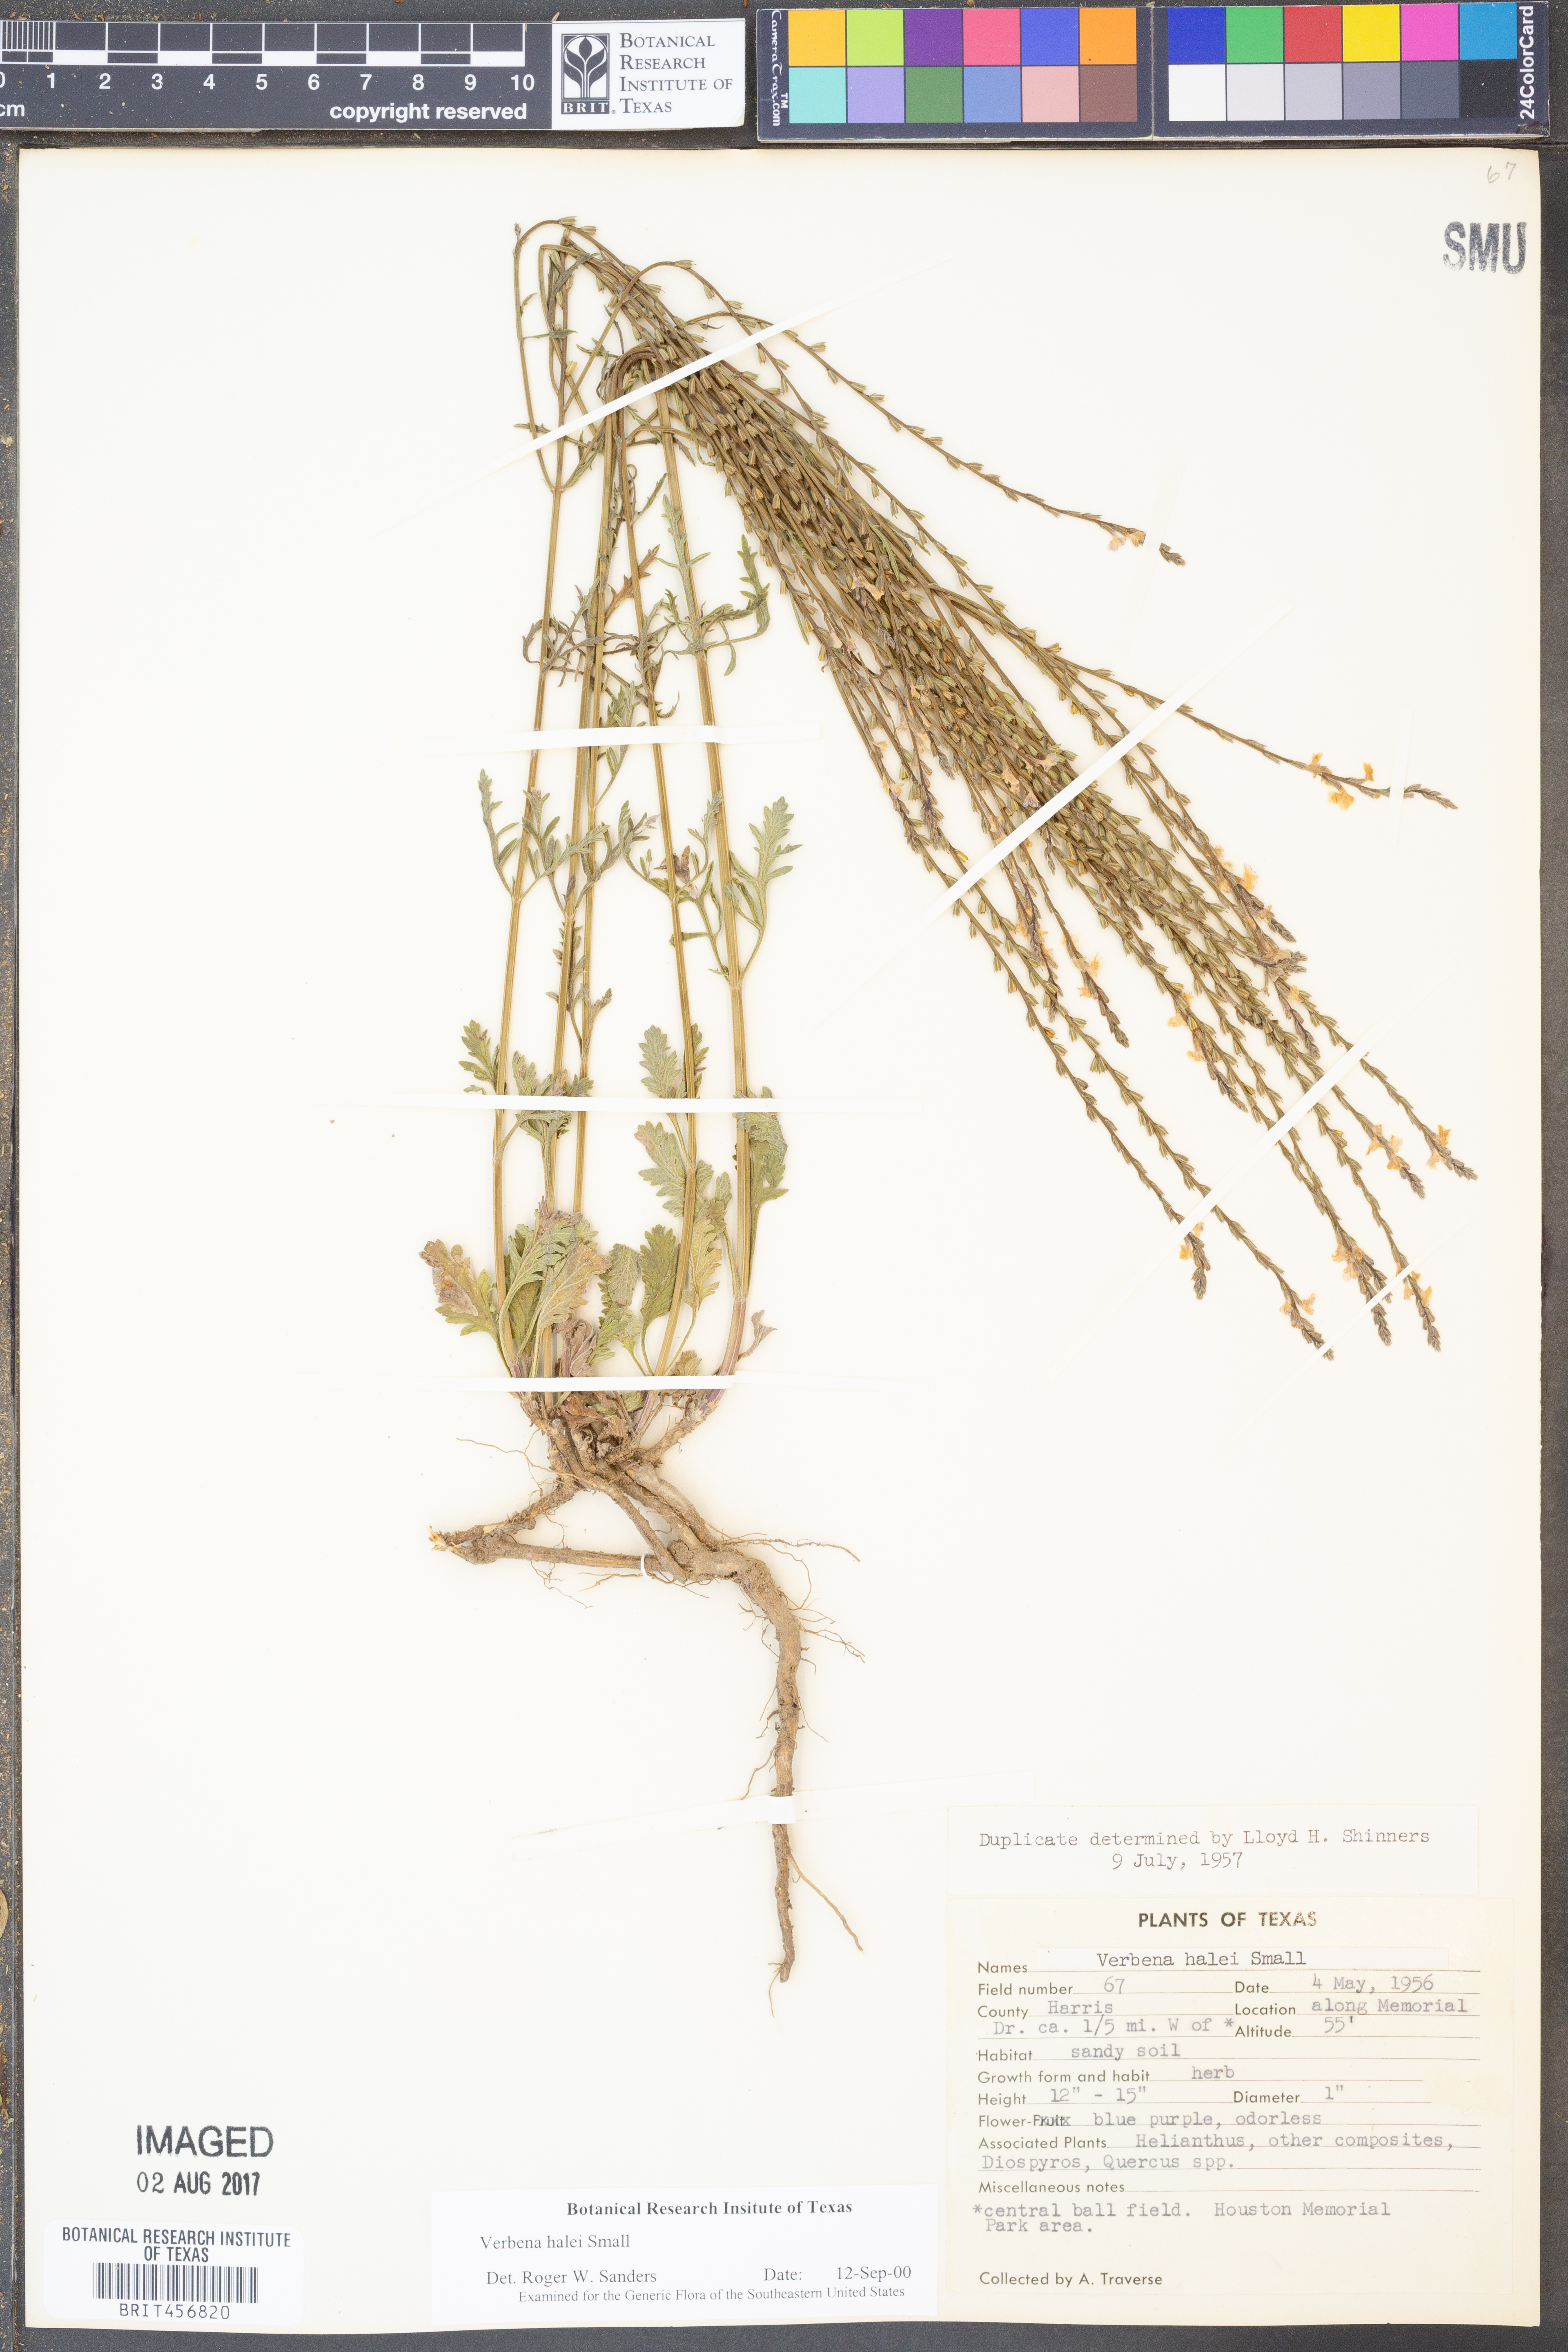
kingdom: Plantae
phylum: Tracheophyta
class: Magnoliopsida
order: Lamiales
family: Verbenaceae
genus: Verbena
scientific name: Verbena halei
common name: Texas vervain
